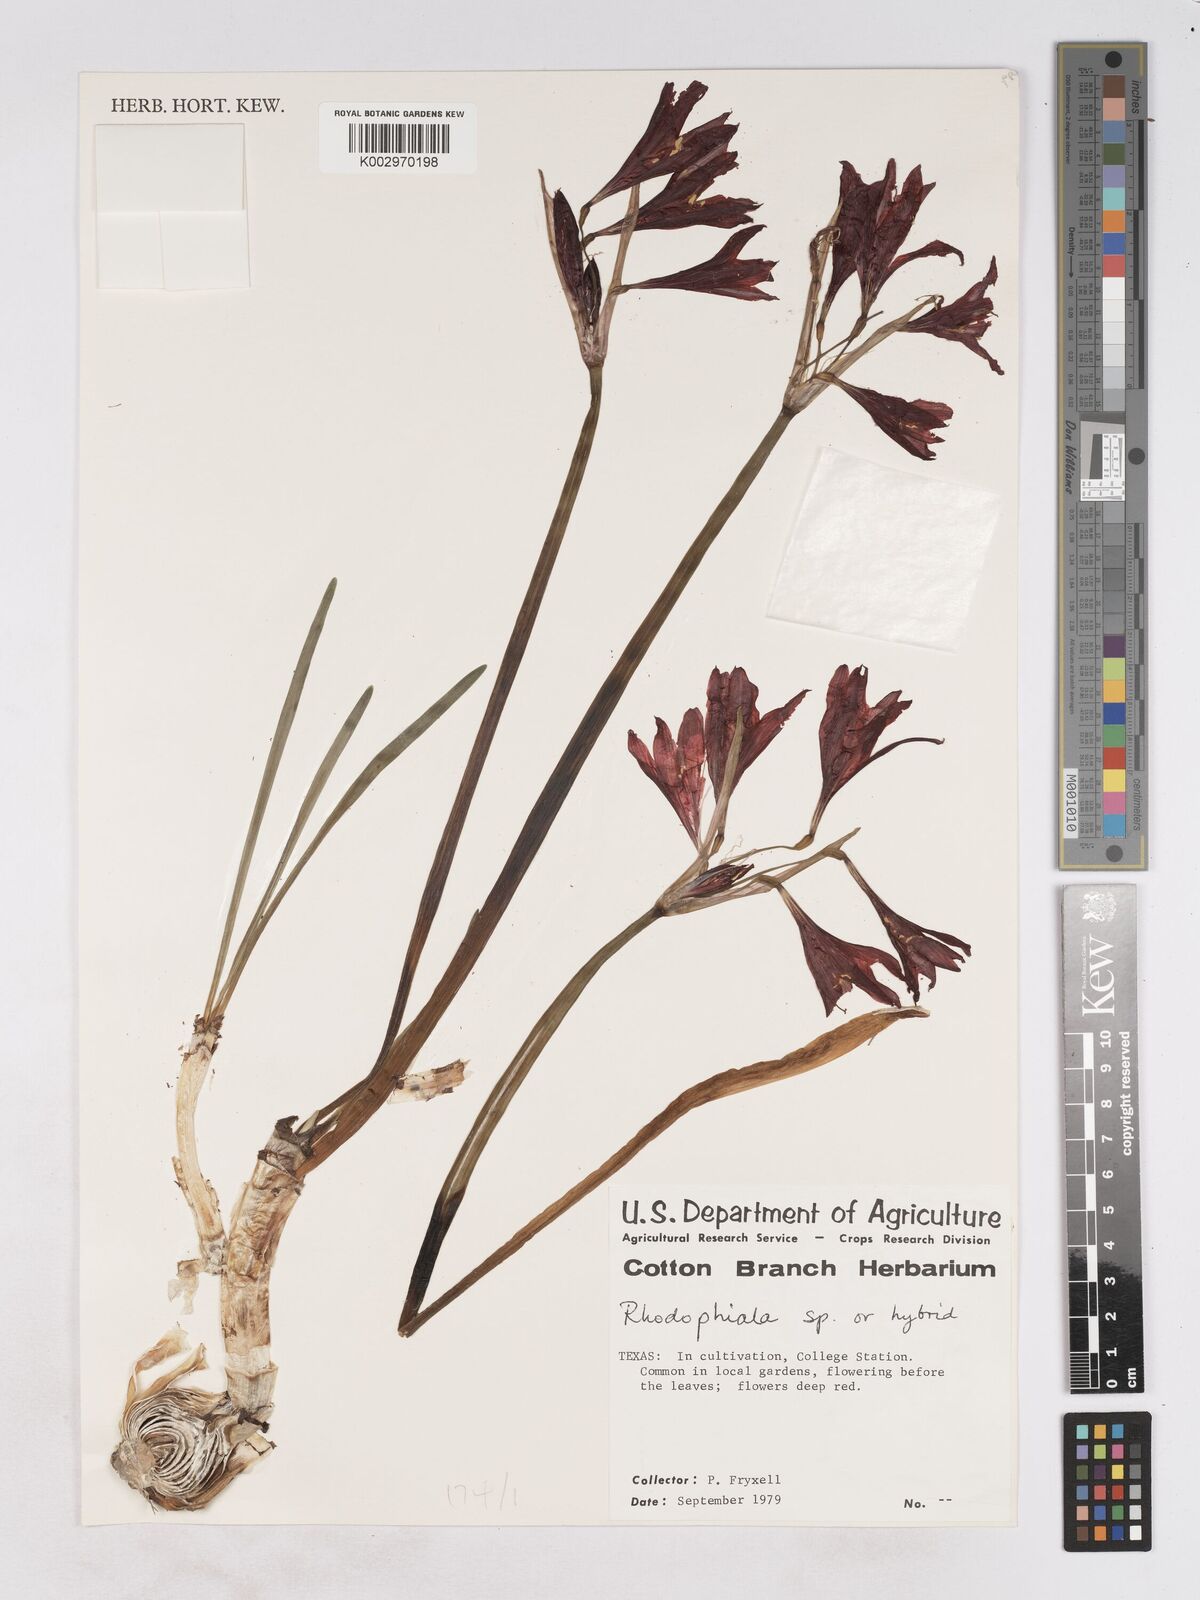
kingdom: Plantae
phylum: Tracheophyta
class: Liliopsida
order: Asparagales
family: Amaryllidaceae
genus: Hippeastrum
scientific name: Hippeastrum
